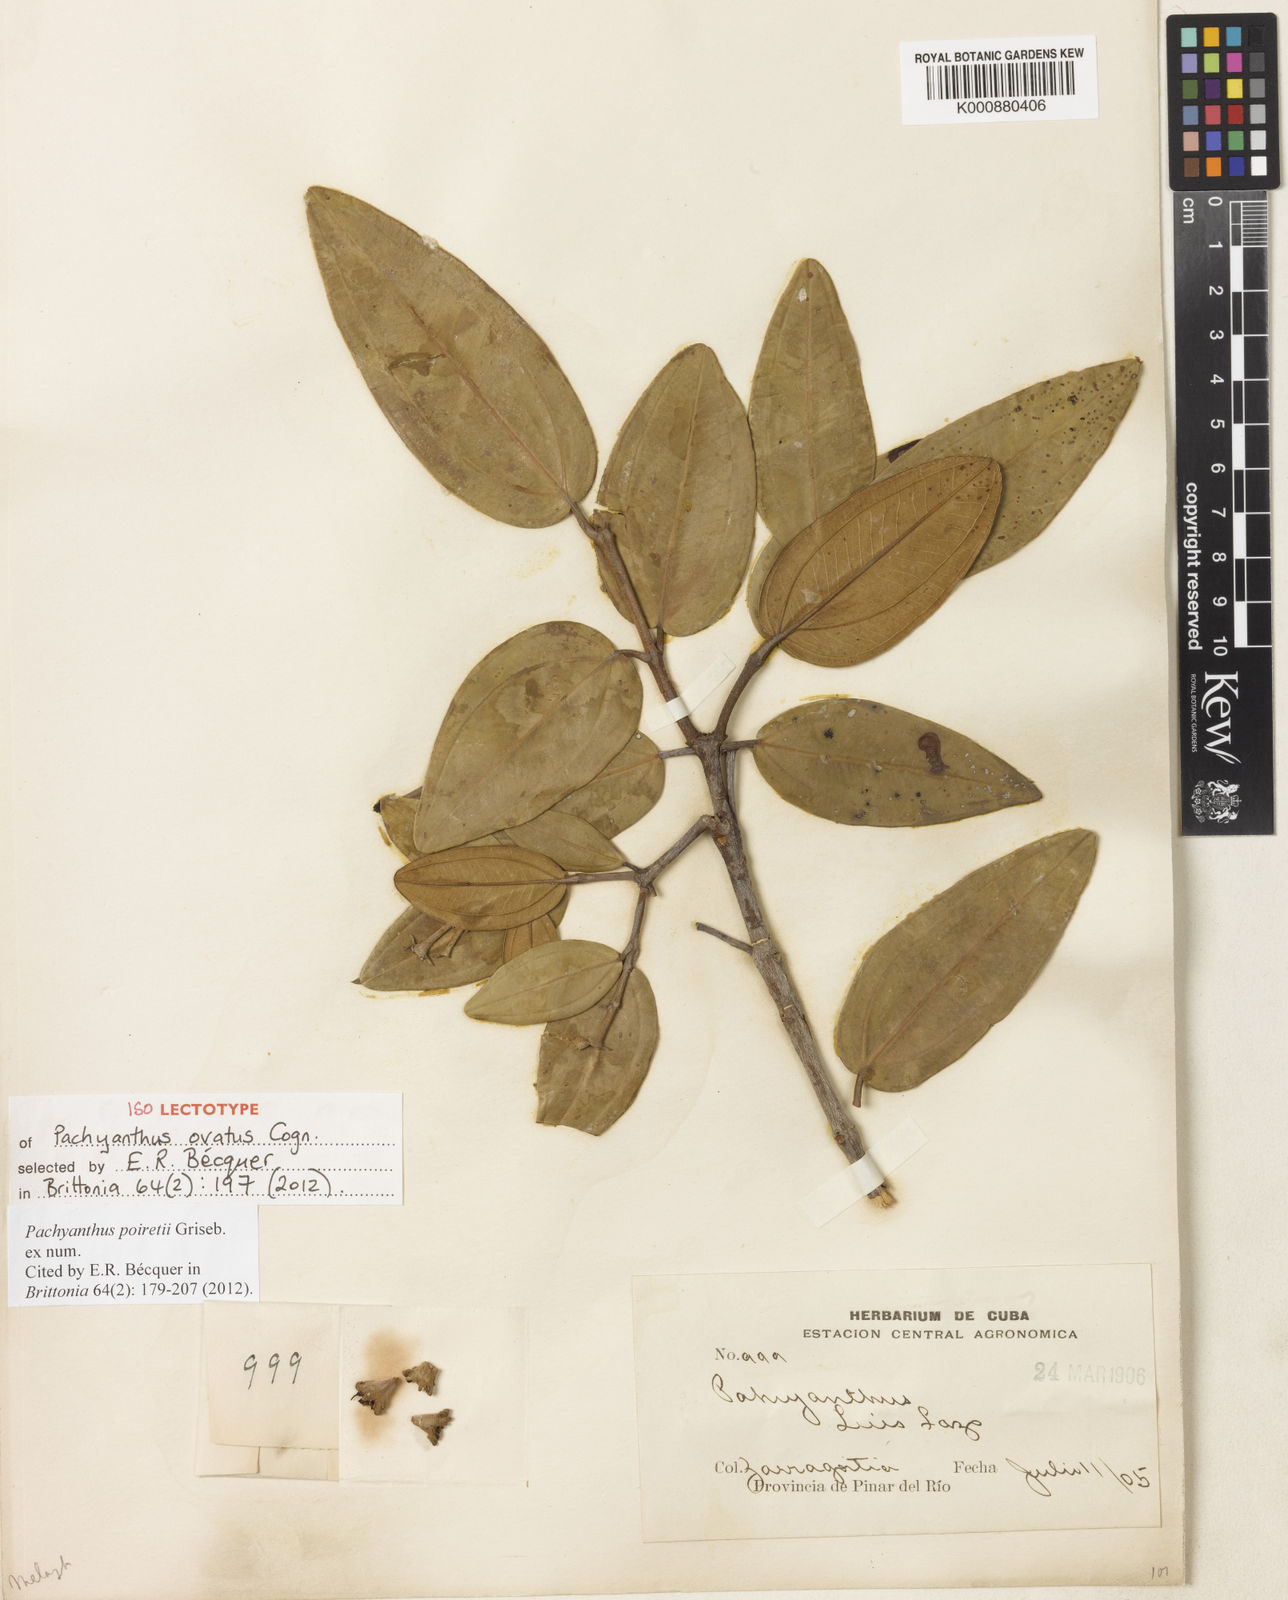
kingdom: Plantae
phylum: Tracheophyta
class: Magnoliopsida
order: Myrtales
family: Melastomataceae
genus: Miconia
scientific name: Miconia poiretii
